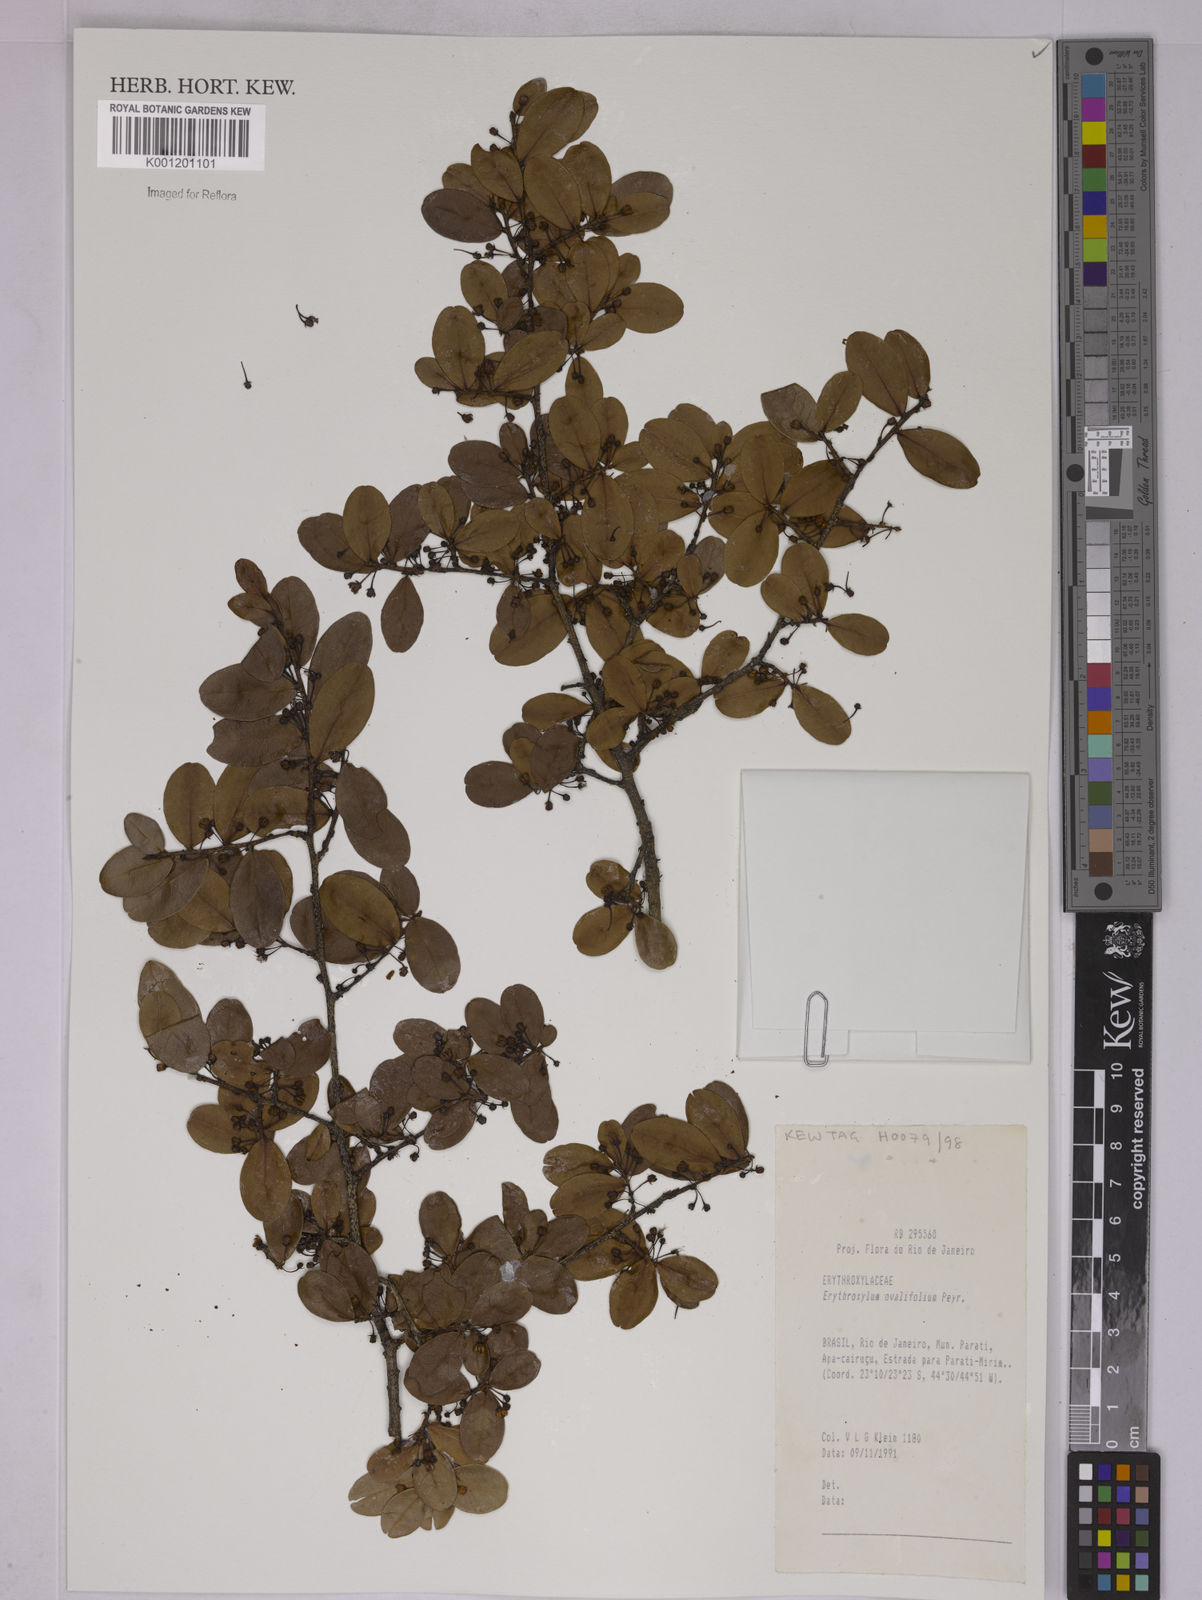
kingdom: Plantae
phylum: Tracheophyta
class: Magnoliopsida
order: Malpighiales
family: Erythroxylaceae
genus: Erythroxylum
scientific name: Erythroxylum ovalifolium
